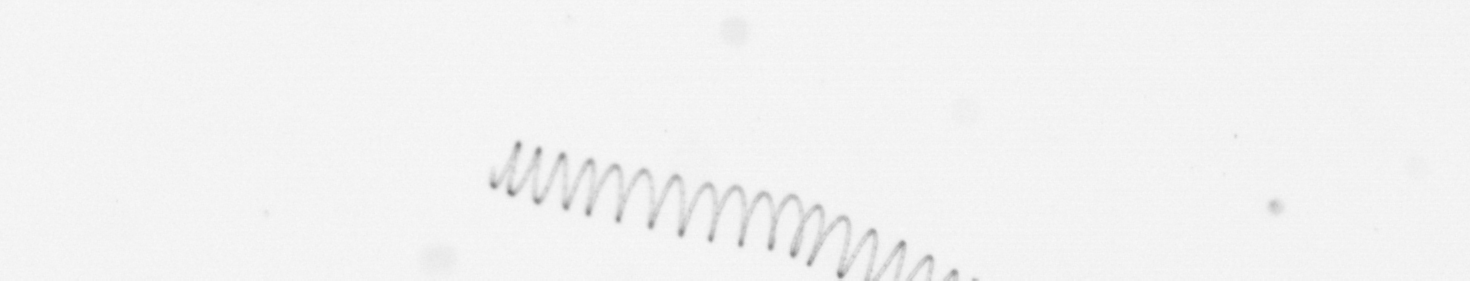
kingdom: Chromista
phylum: Ochrophyta
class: Bacillariophyceae
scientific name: Bacillariophyceae
